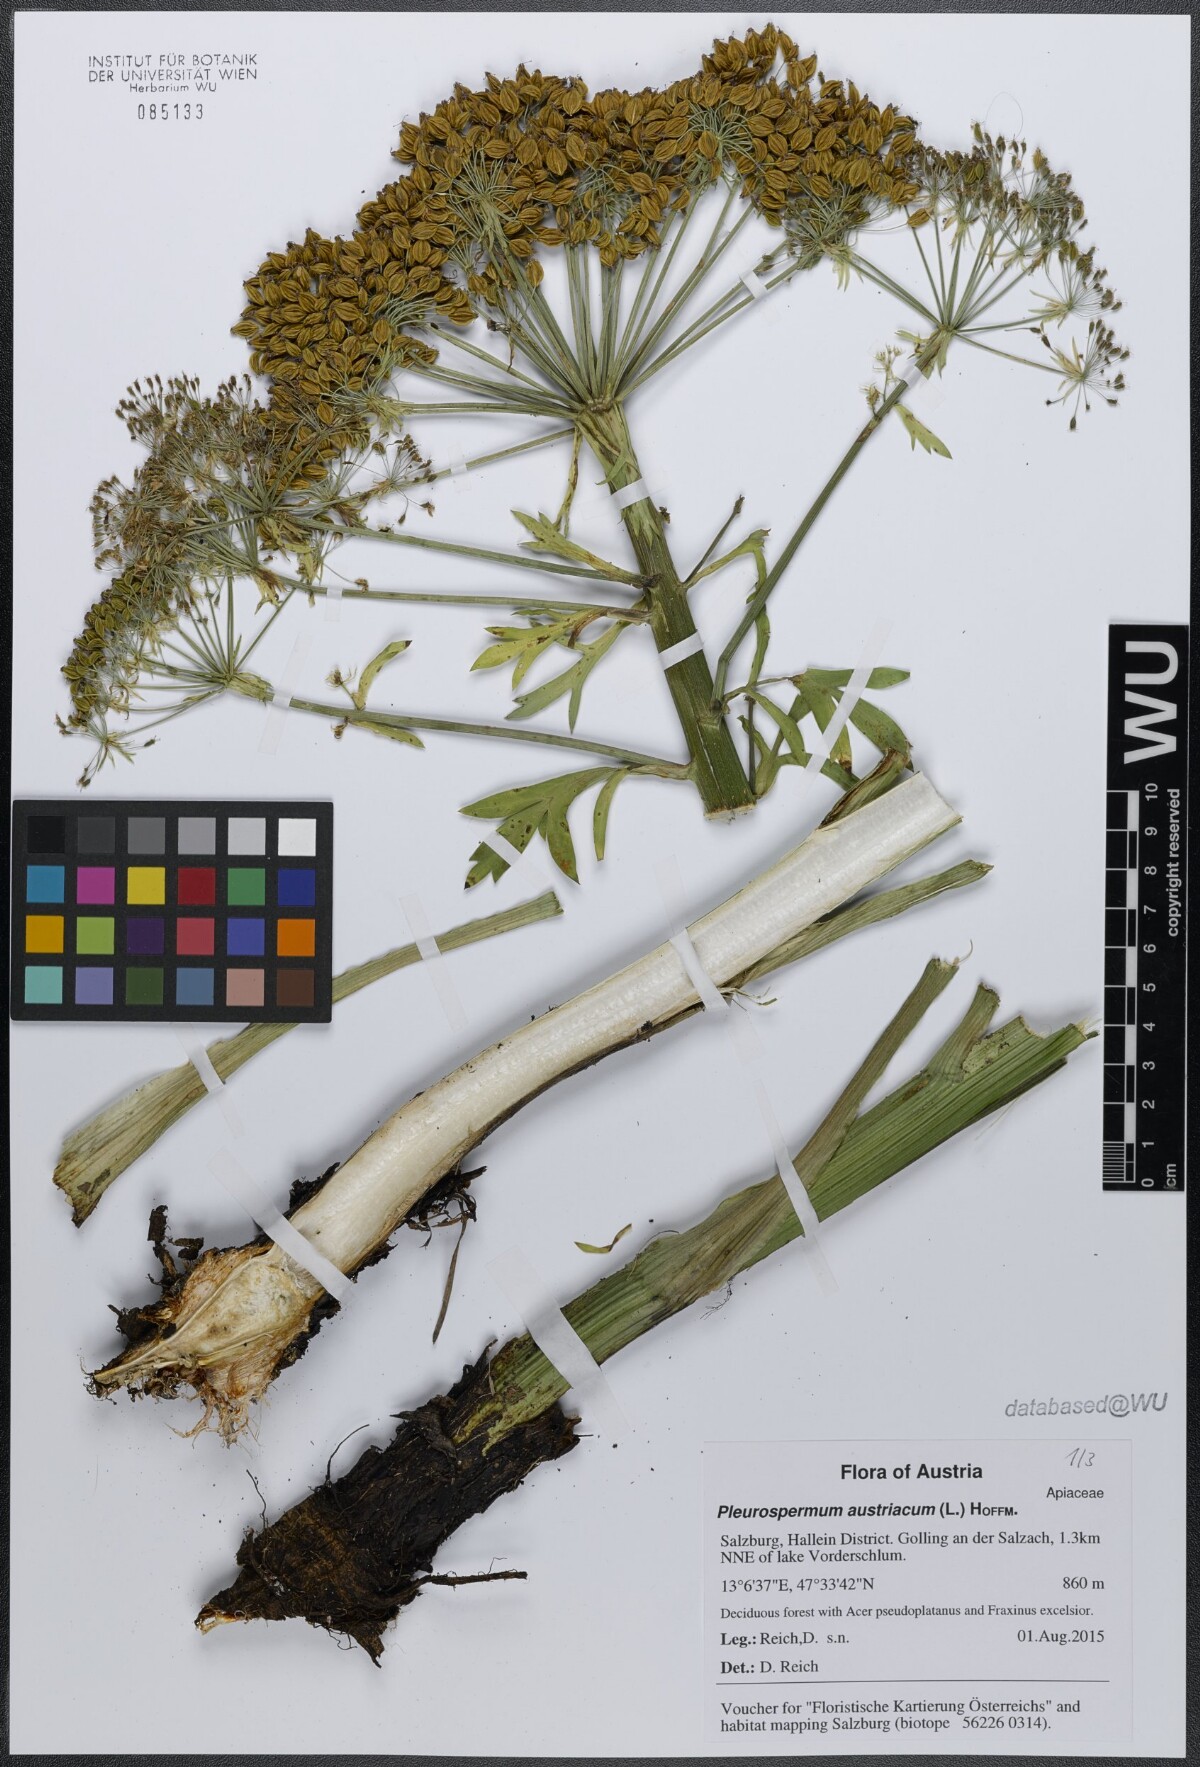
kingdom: Plantae
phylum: Tracheophyta
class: Magnoliopsida
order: Apiales
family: Apiaceae
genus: Pleurospermum
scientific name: Pleurospermum austriacum
